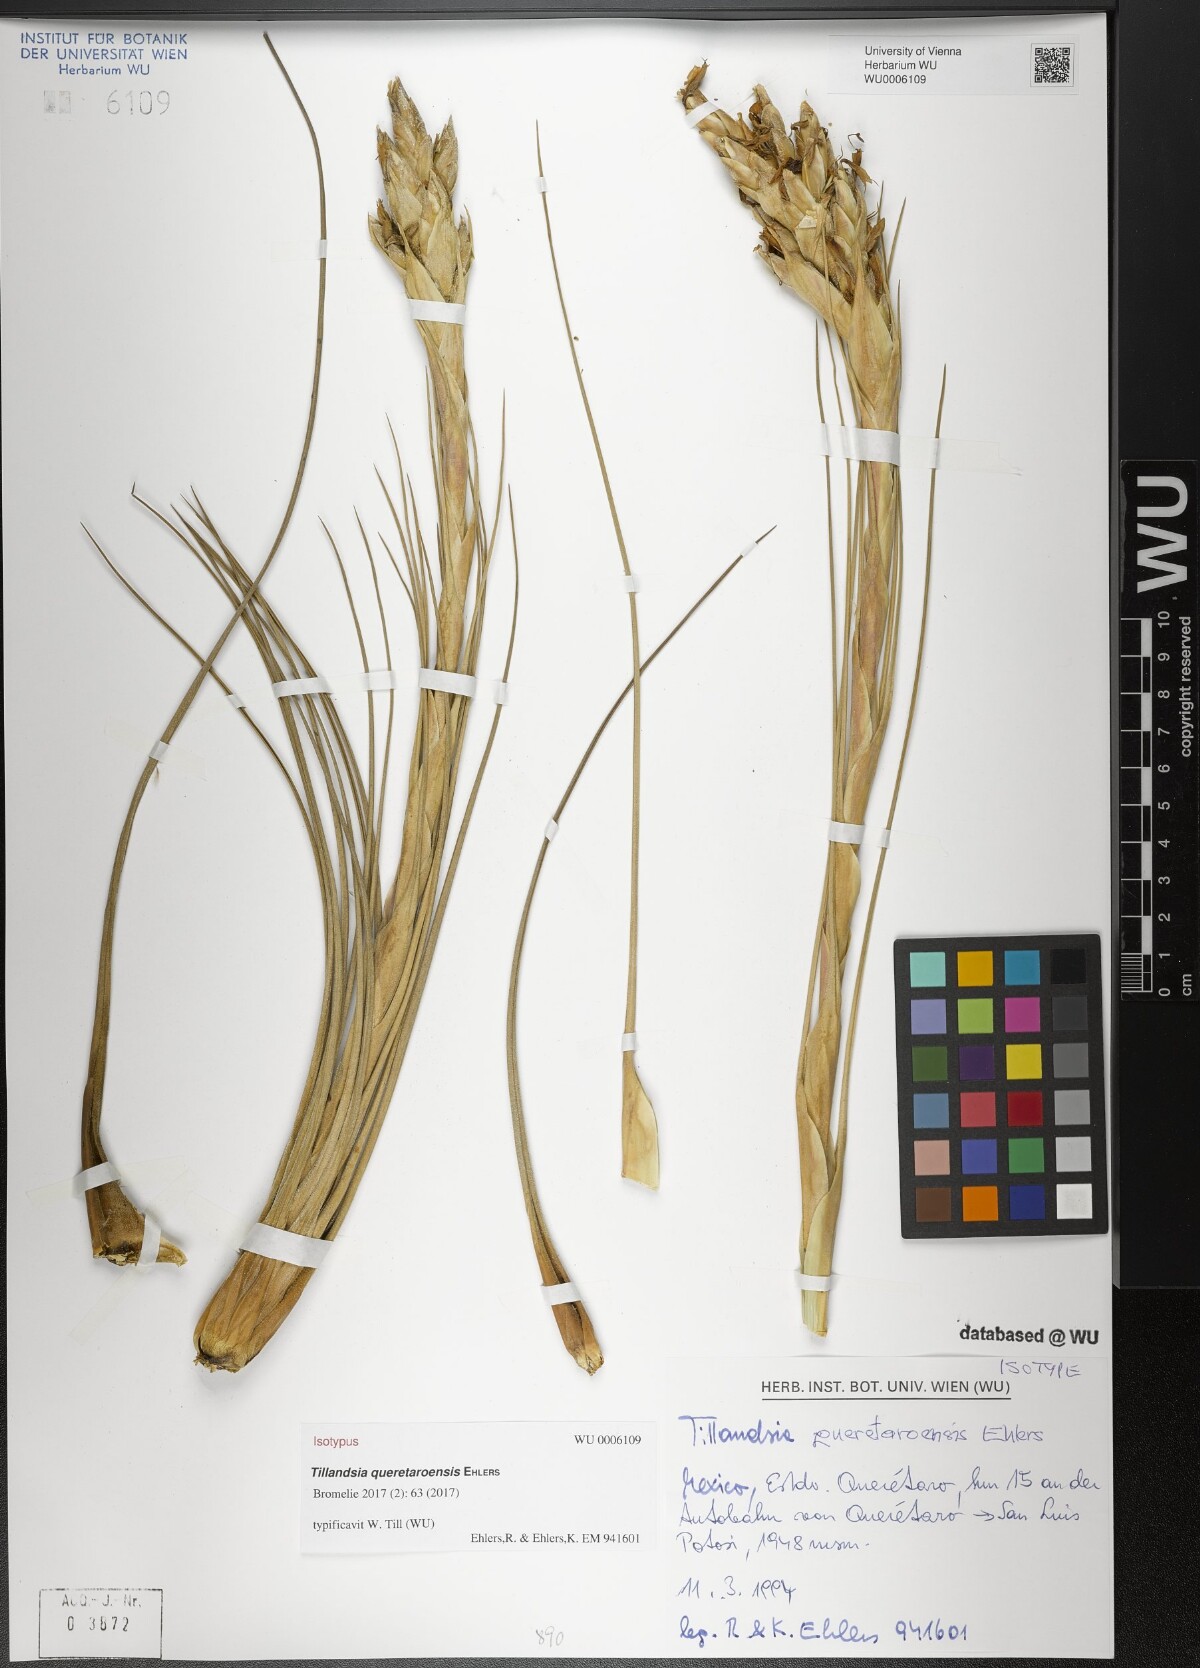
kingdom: Plantae
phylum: Tracheophyta
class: Liliopsida
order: Poales
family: Bromeliaceae
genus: Tillandsia
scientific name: Tillandsia queretaroensis
